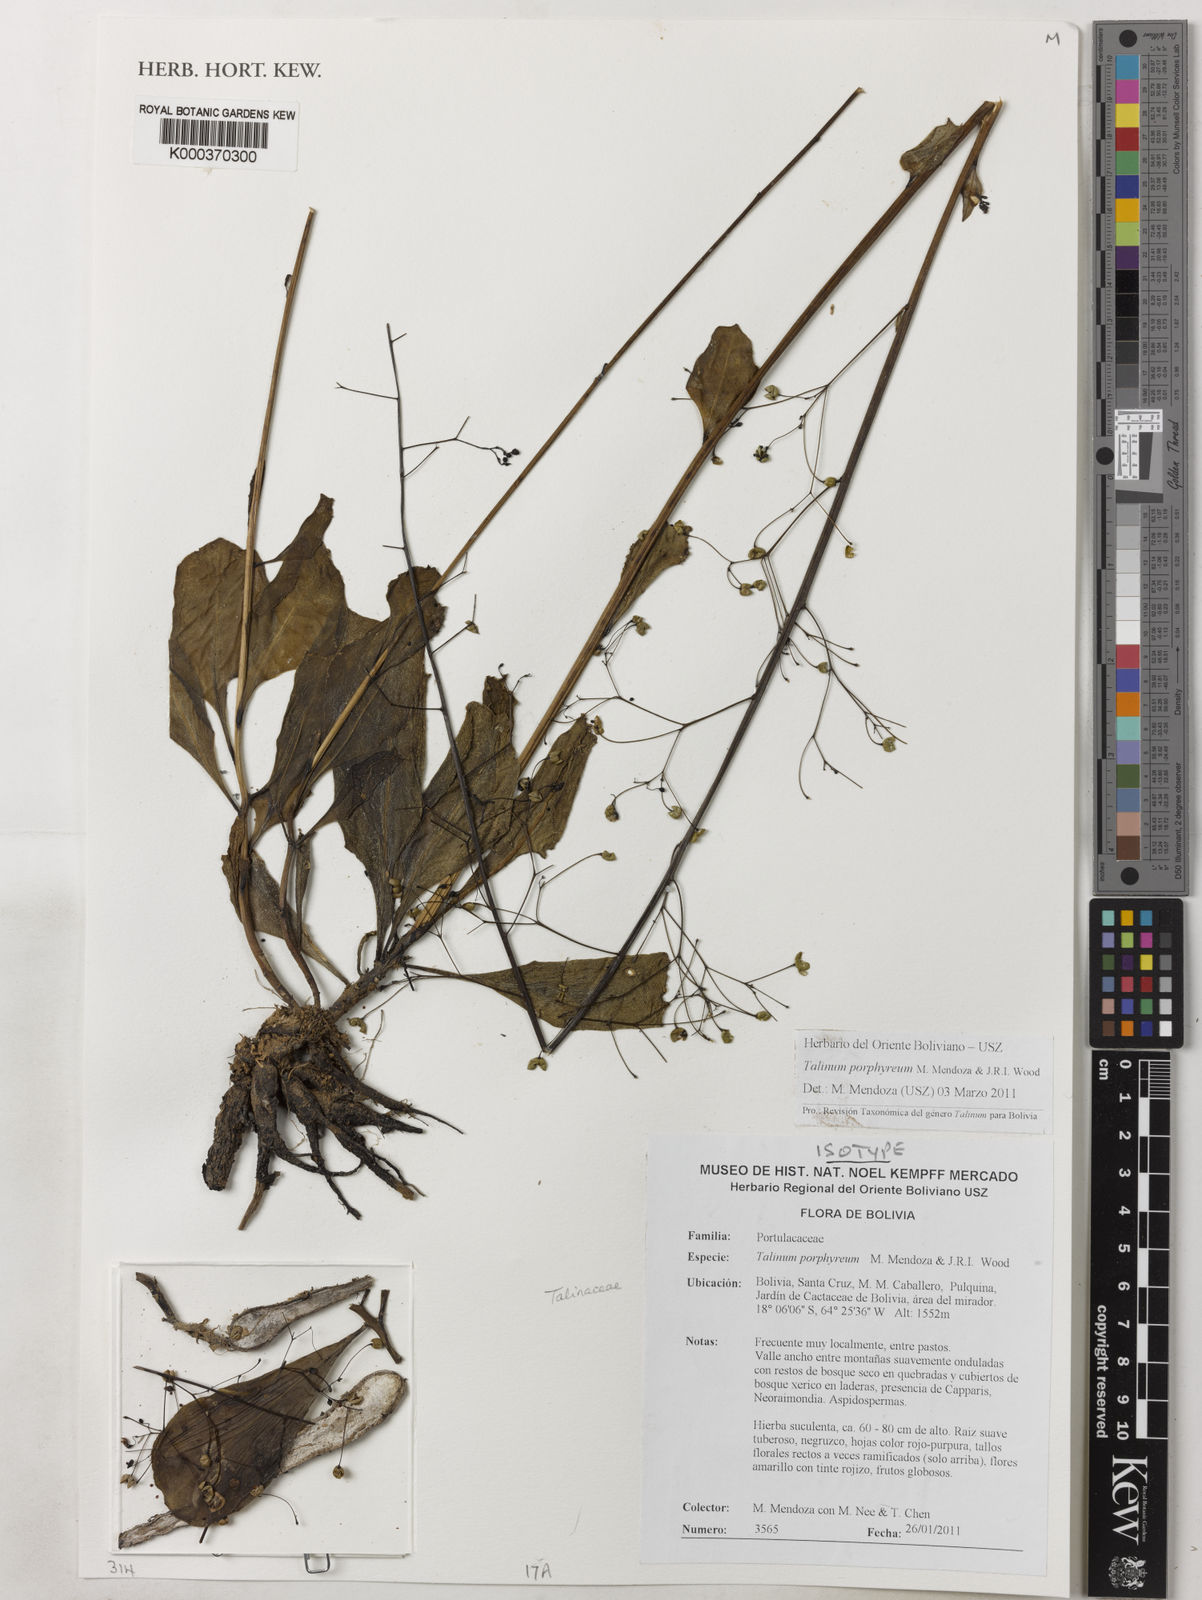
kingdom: Plantae
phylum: Tracheophyta
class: Magnoliopsida
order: Caryophyllales
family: Talinaceae
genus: Talinum
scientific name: Talinum porphyreum
